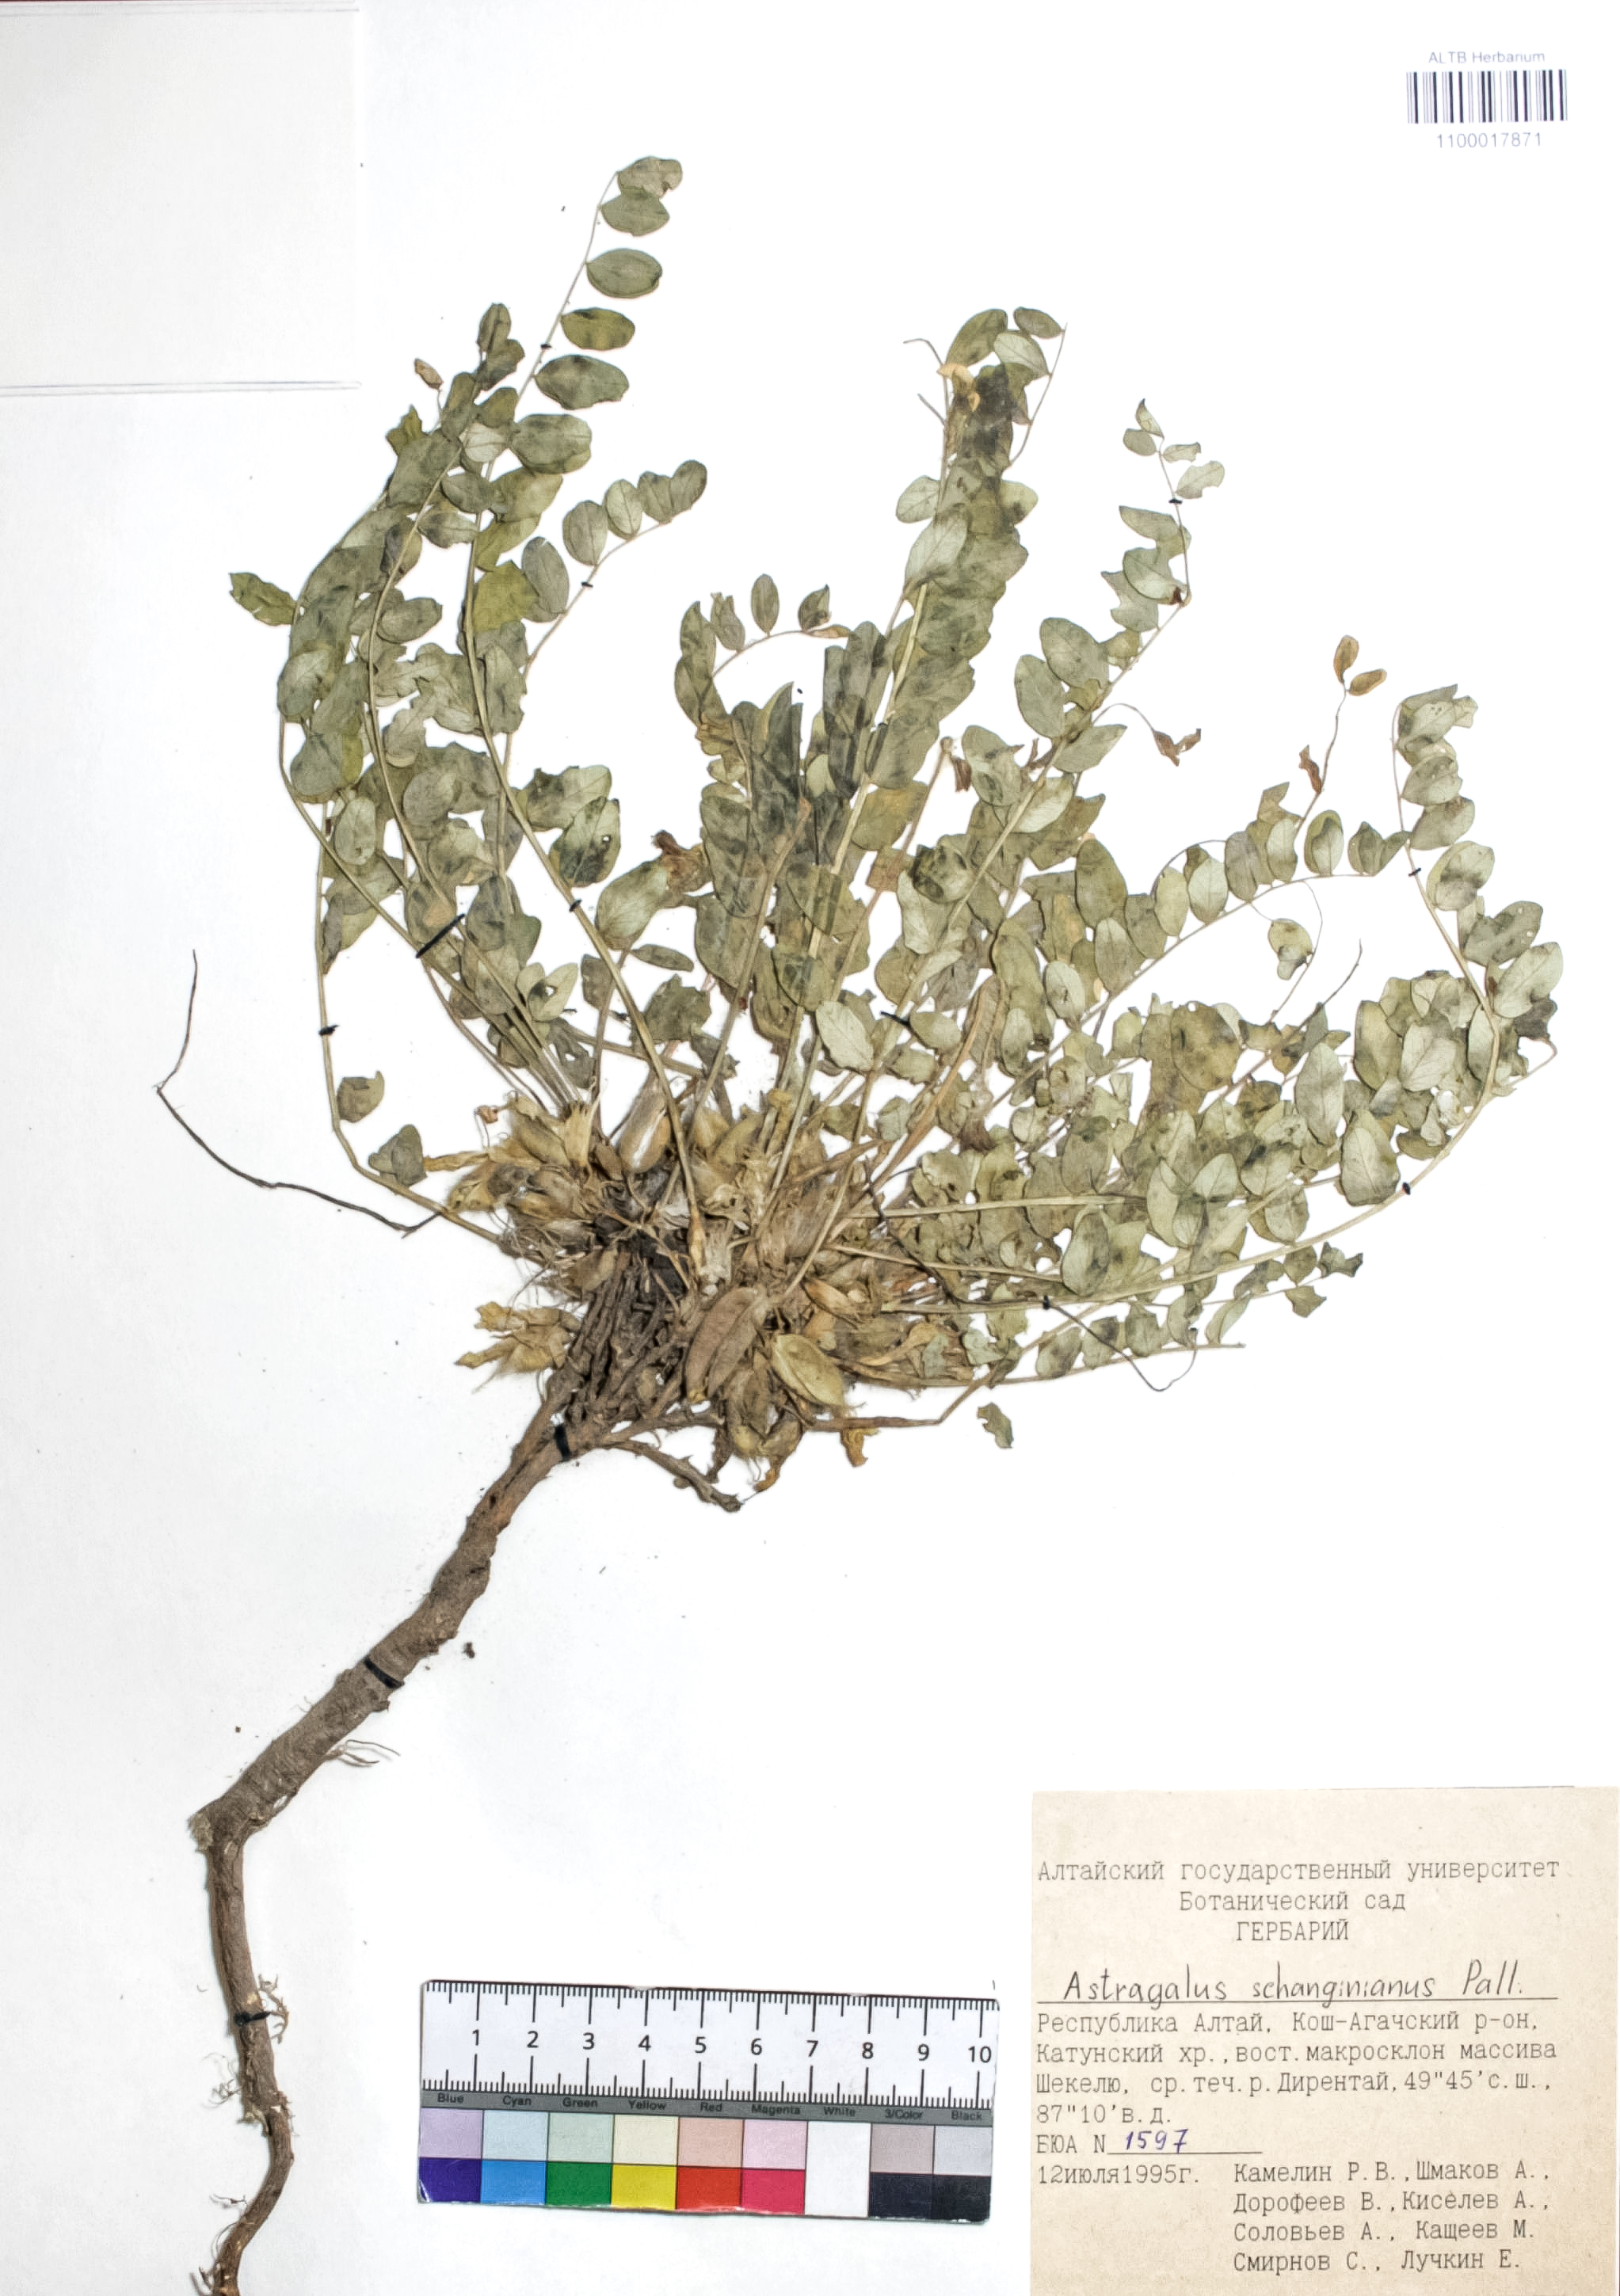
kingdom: Plantae
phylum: Tracheophyta
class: Magnoliopsida
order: Fabales
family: Fabaceae
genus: Astragalus
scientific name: Astragalus schanginianus
